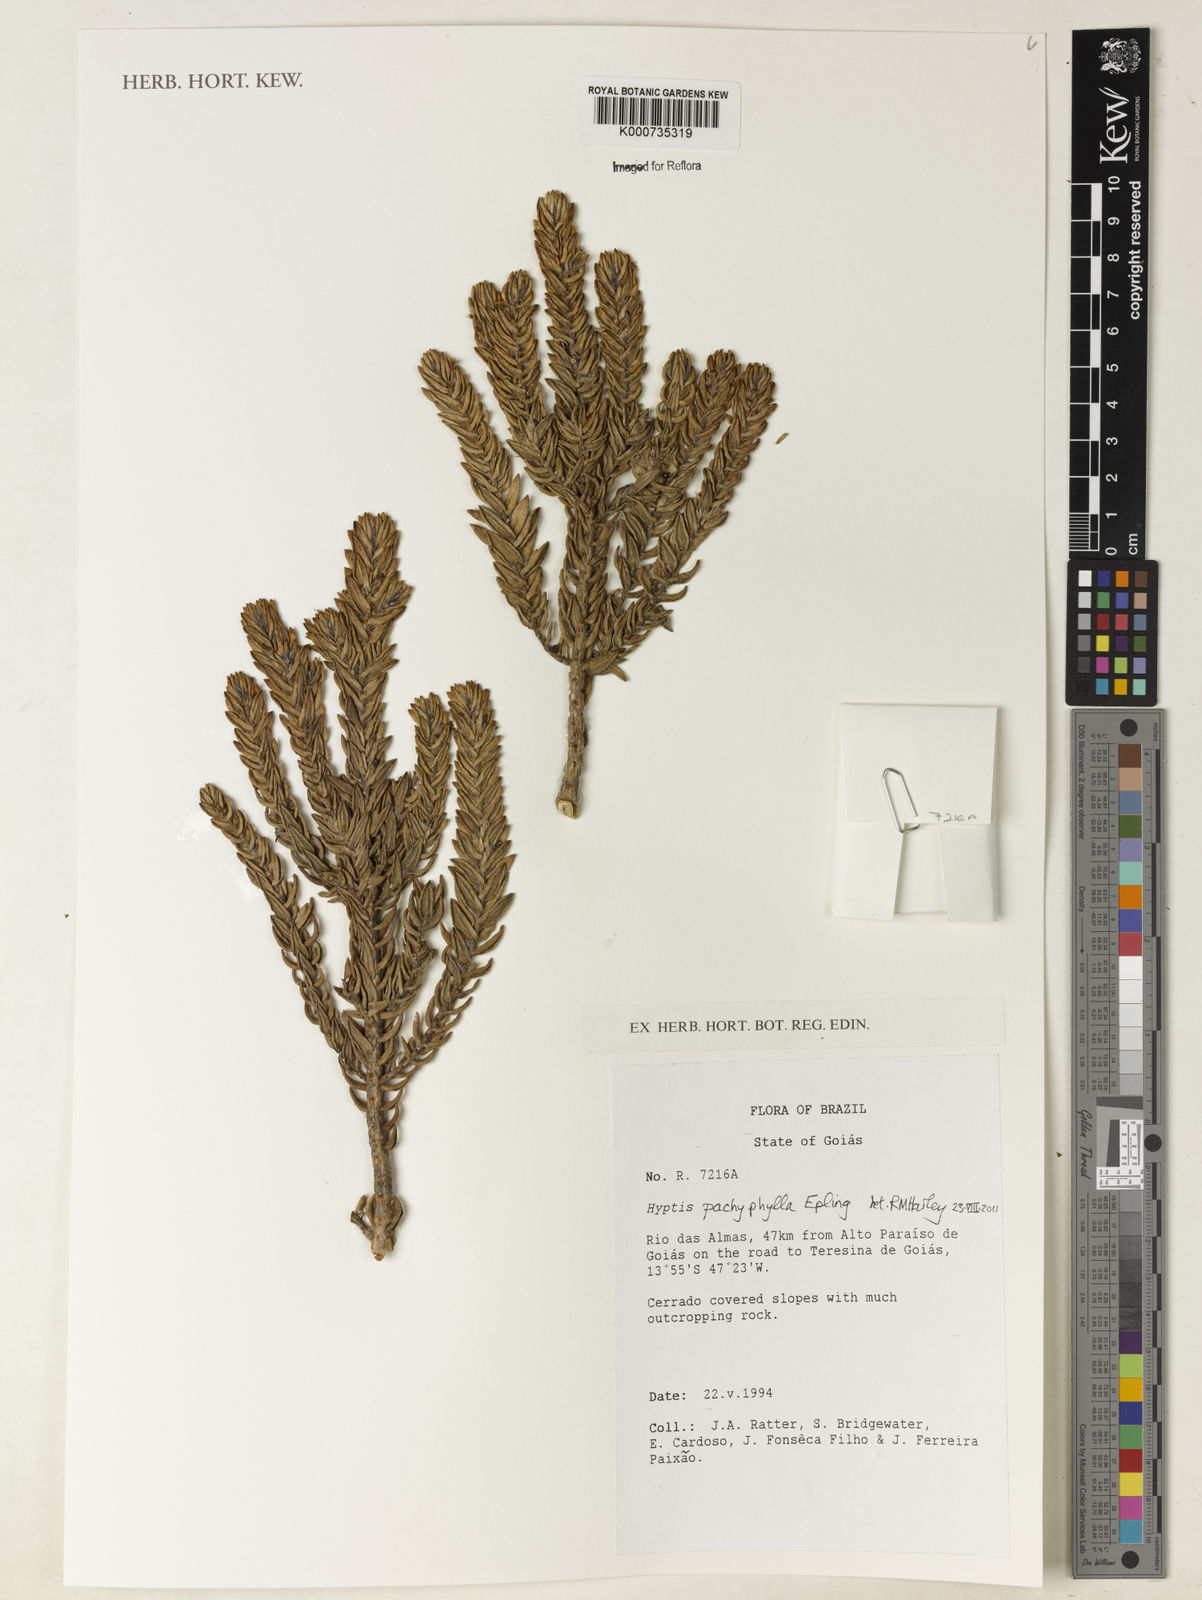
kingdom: Plantae
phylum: Tracheophyta
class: Magnoliopsida
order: Lamiales
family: Lamiaceae
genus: Hyptis
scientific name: Hyptis pachyphylla
